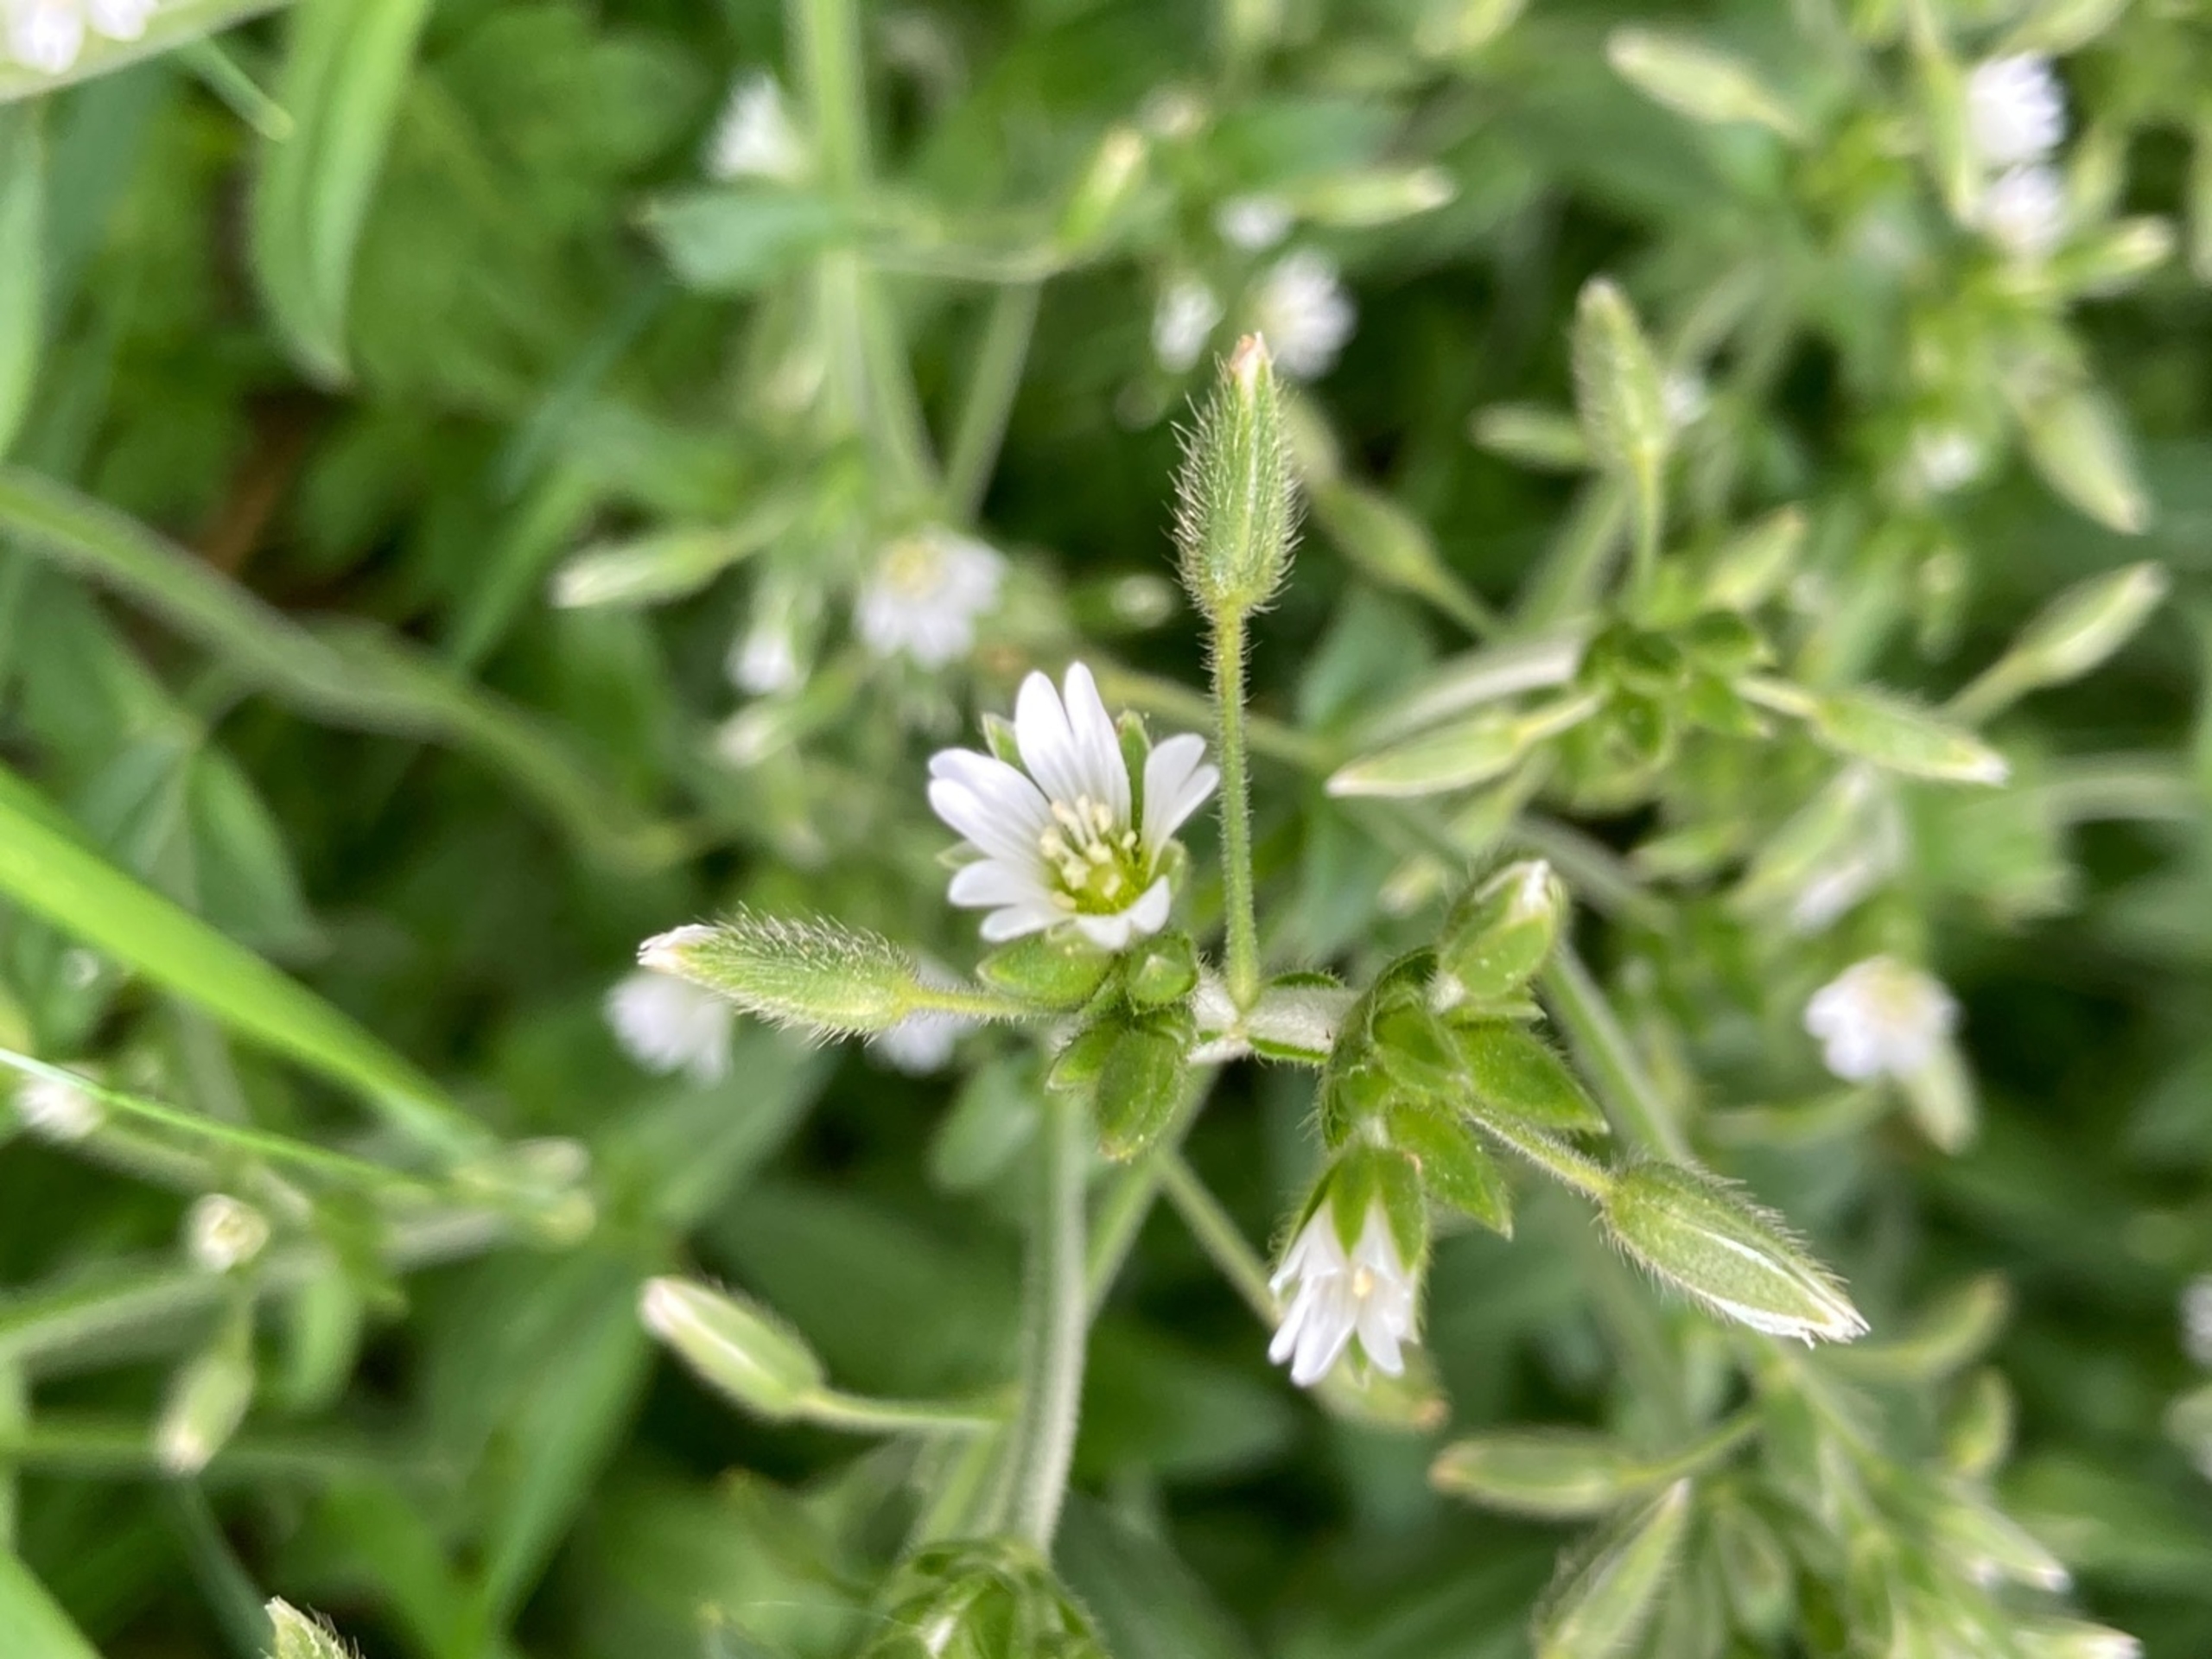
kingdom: Plantae
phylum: Tracheophyta
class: Magnoliopsida
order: Caryophyllales
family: Caryophyllaceae
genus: Cerastium
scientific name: Cerastium fontanum
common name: Almindelig hønsetarm
